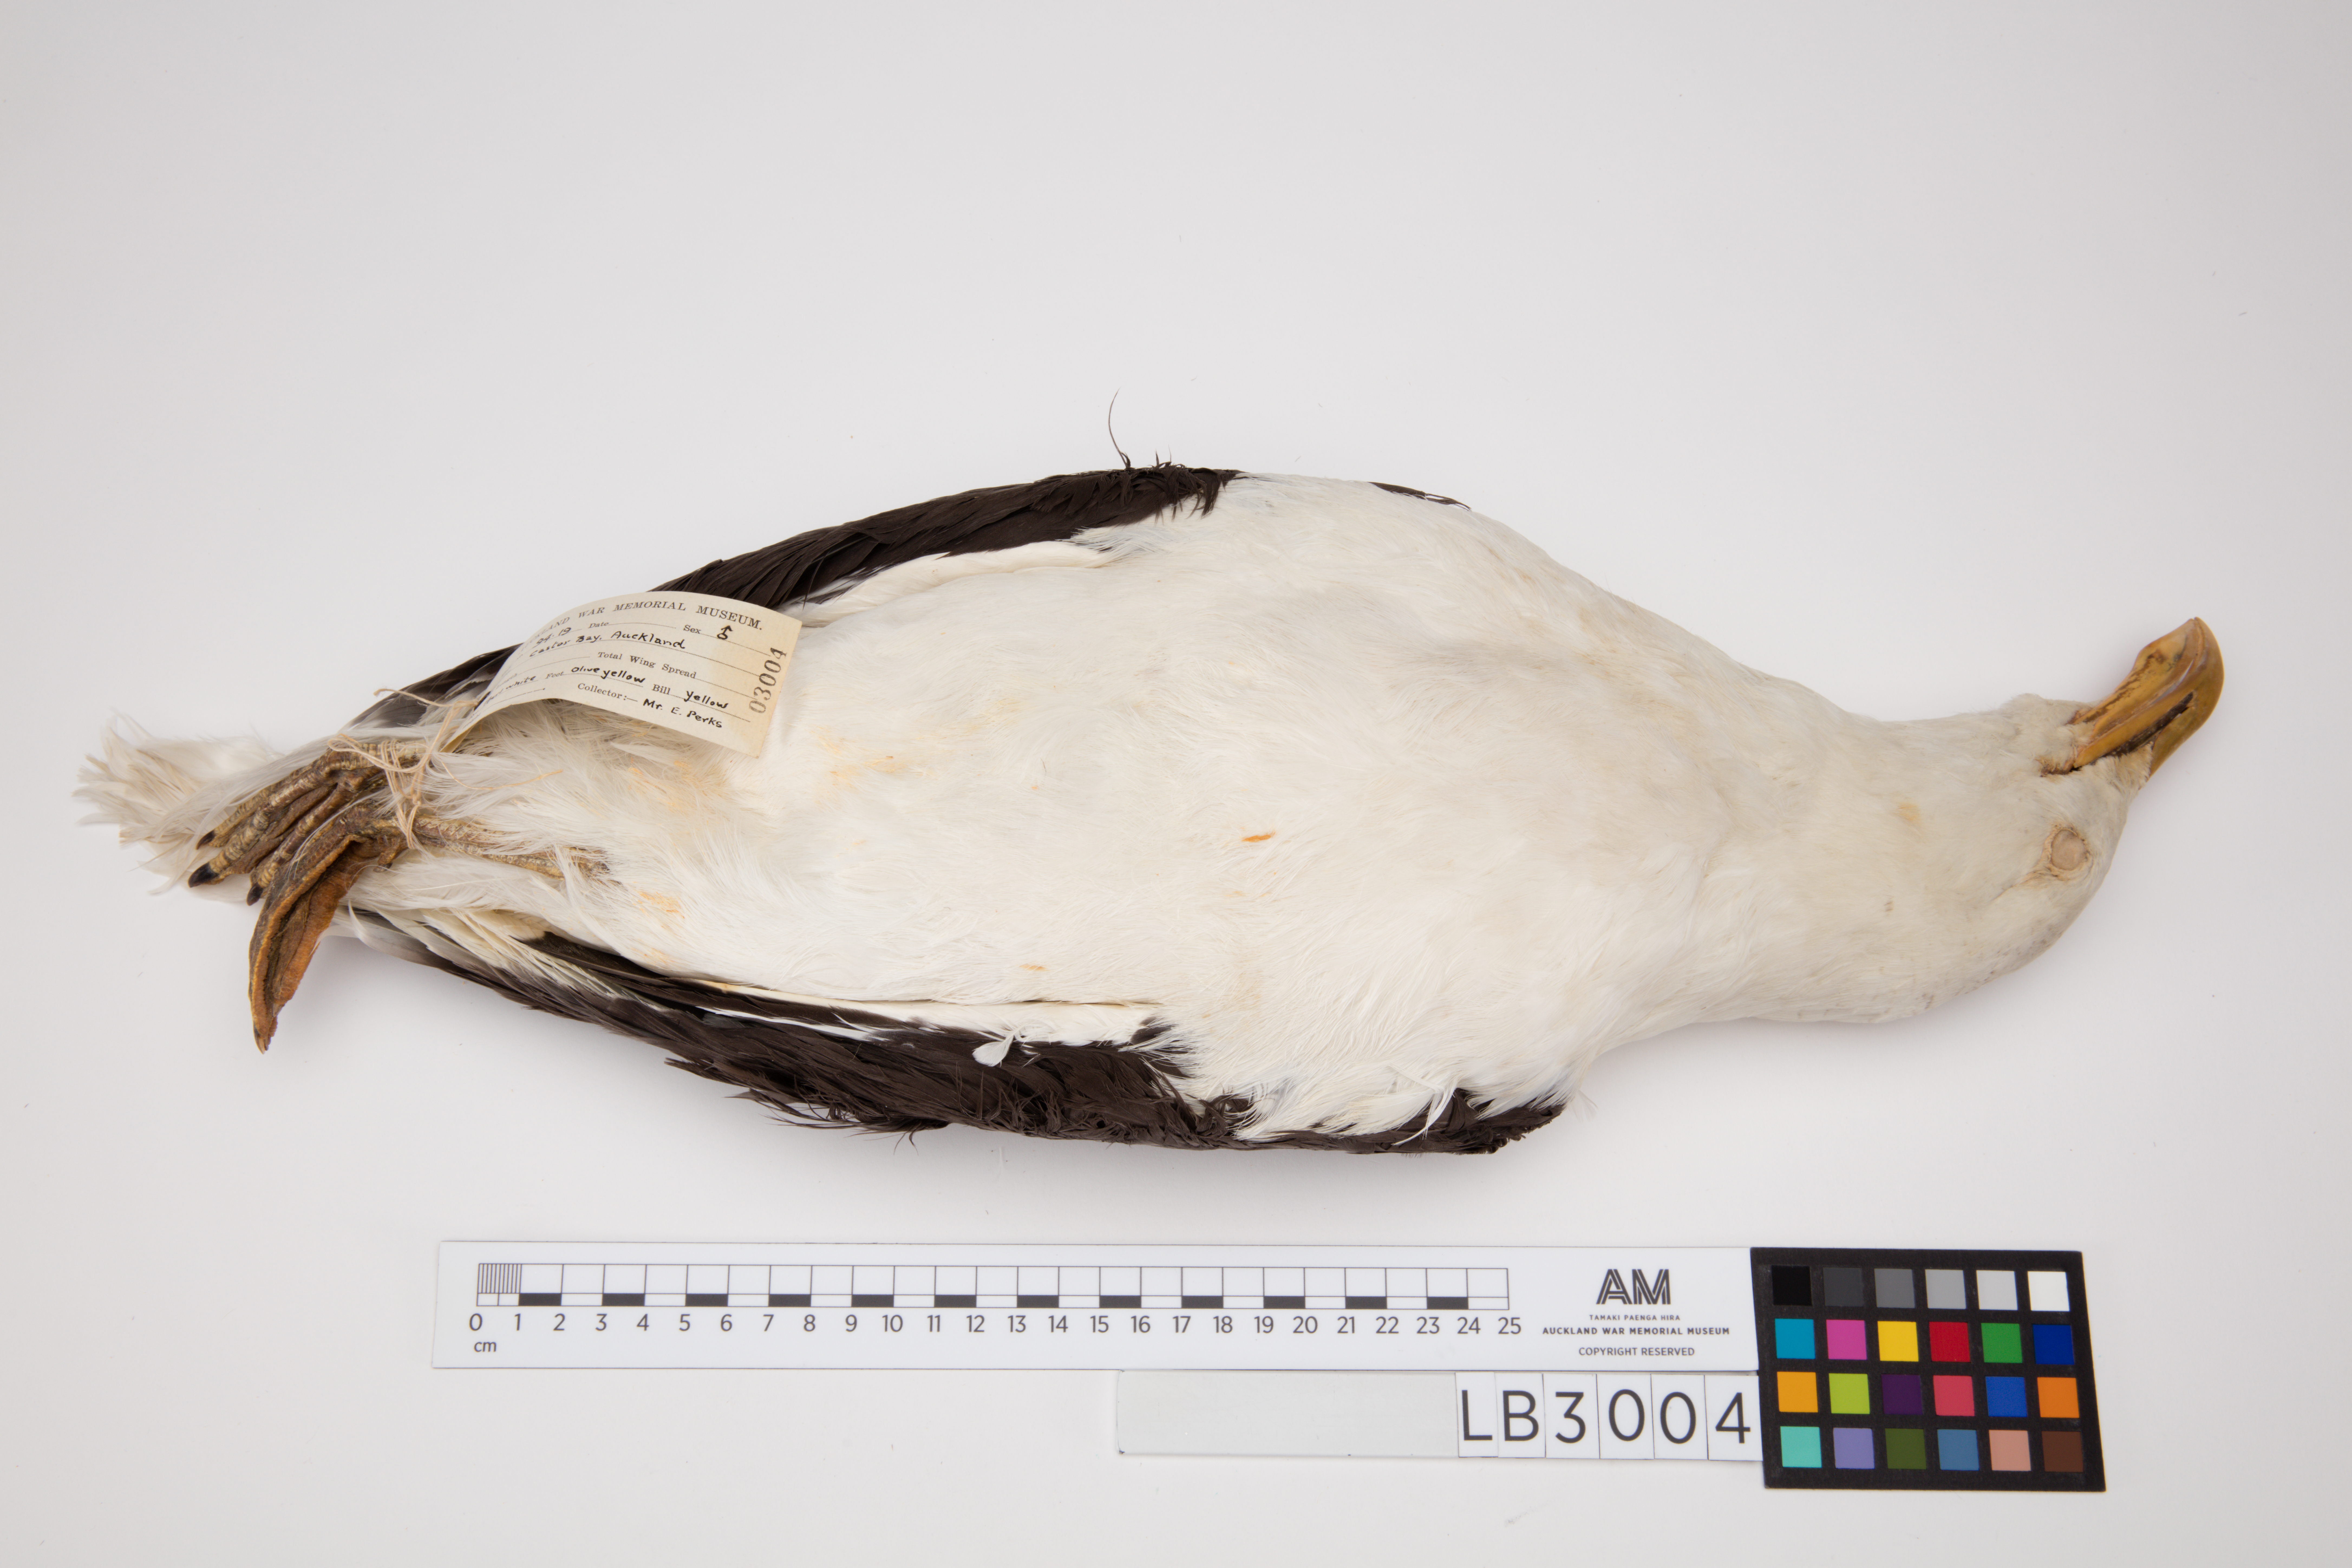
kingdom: Animalia
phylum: Chordata
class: Aves
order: Charadriiformes
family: Laridae
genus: Larus
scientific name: Larus dominicanus
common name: Kelp gull
